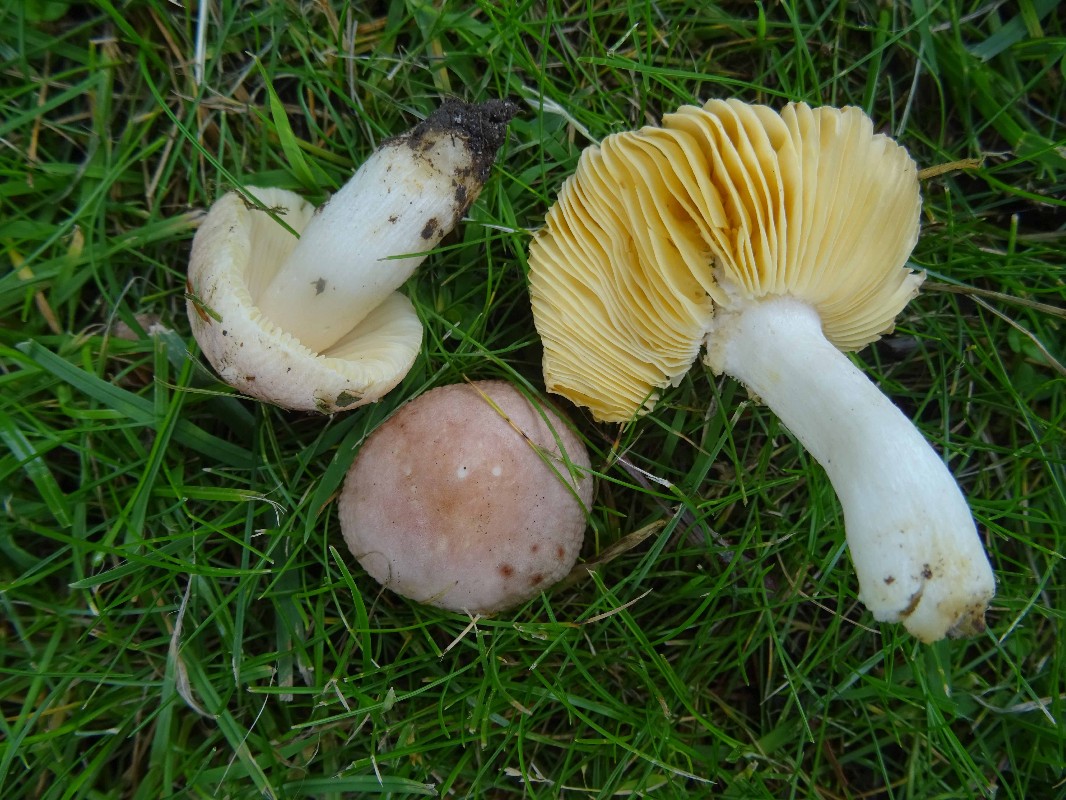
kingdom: Fungi
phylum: Basidiomycota
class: Agaricomycetes
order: Russulales
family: Russulaceae
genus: Russula
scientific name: Russula odorata
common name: duft-skørhat
